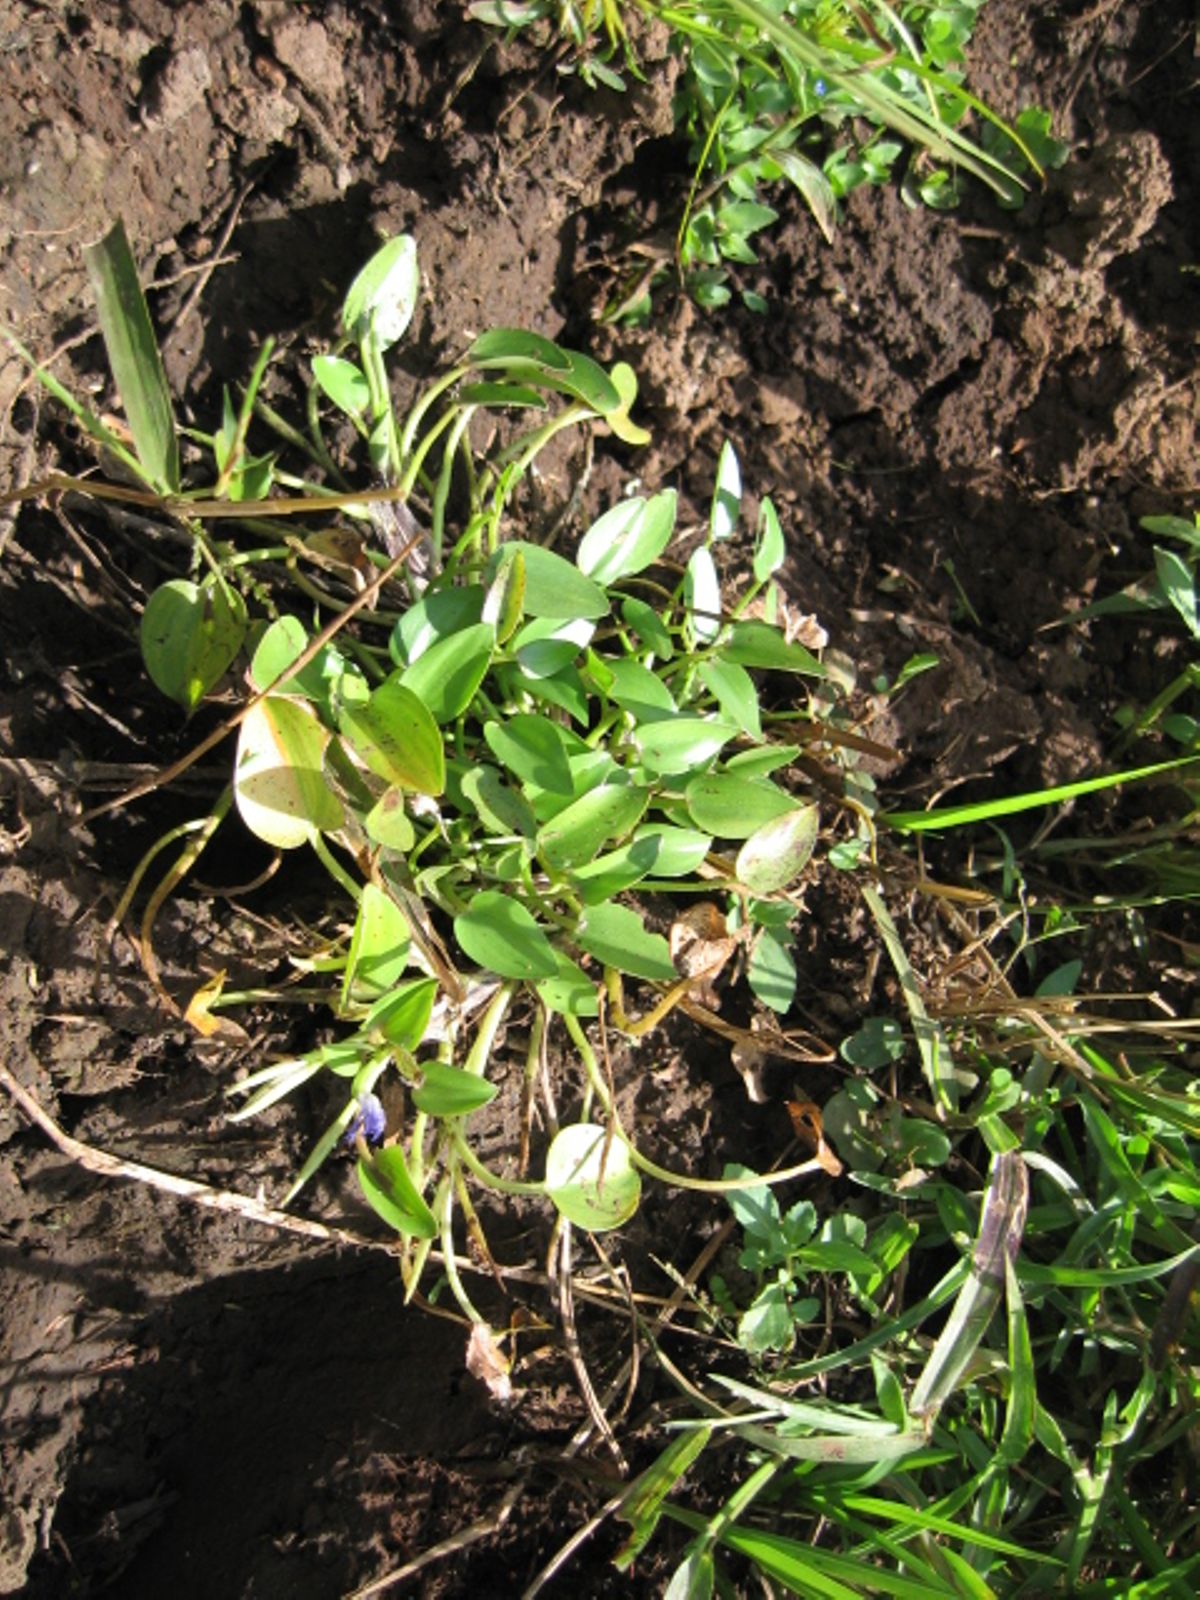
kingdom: Plantae
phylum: Tracheophyta
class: Liliopsida
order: Commelinales
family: Pontederiaceae
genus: Heteranthera
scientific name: Heteranthera limosa
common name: Blue mud-plantain
